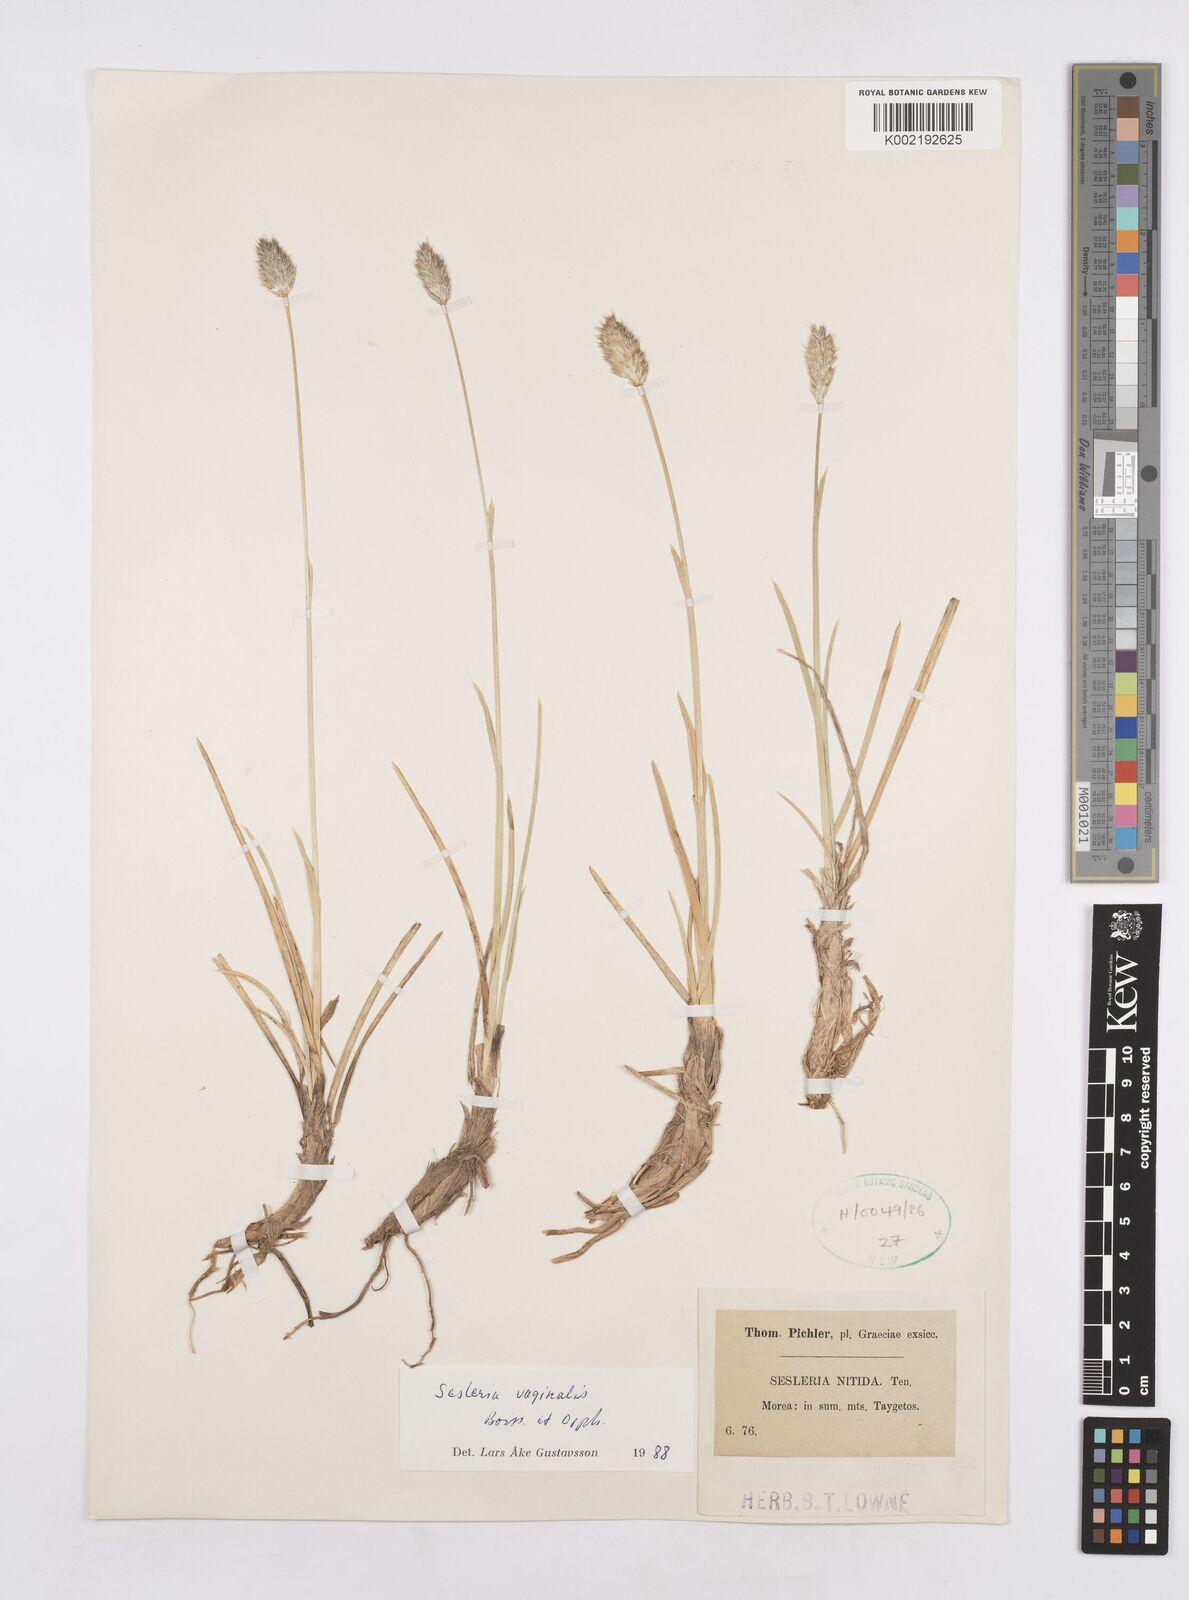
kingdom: Plantae
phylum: Tracheophyta
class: Liliopsida
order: Poales
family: Poaceae
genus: Sesleria
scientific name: Sesleria vaginalis
